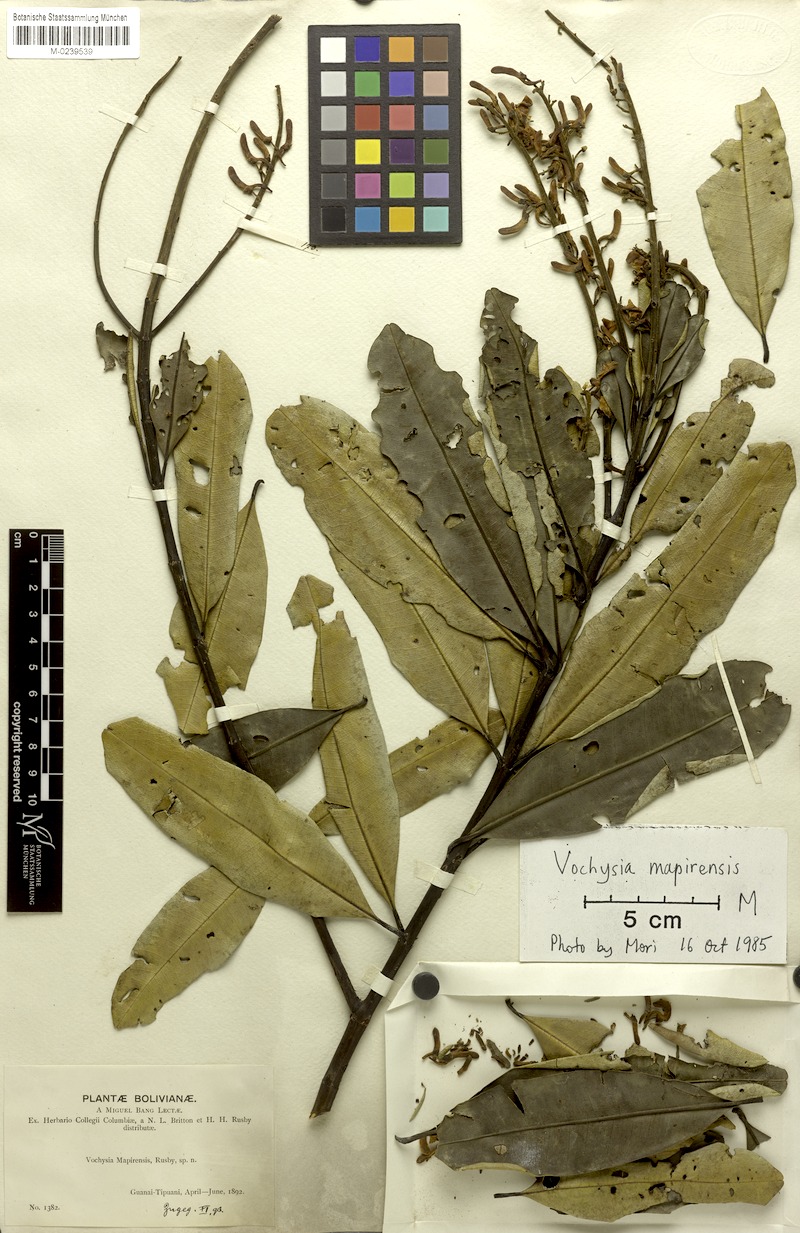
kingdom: Plantae
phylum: Tracheophyta
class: Magnoliopsida
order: Myrtales
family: Vochysiaceae
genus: Vochysia
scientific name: Vochysia mapirensis
